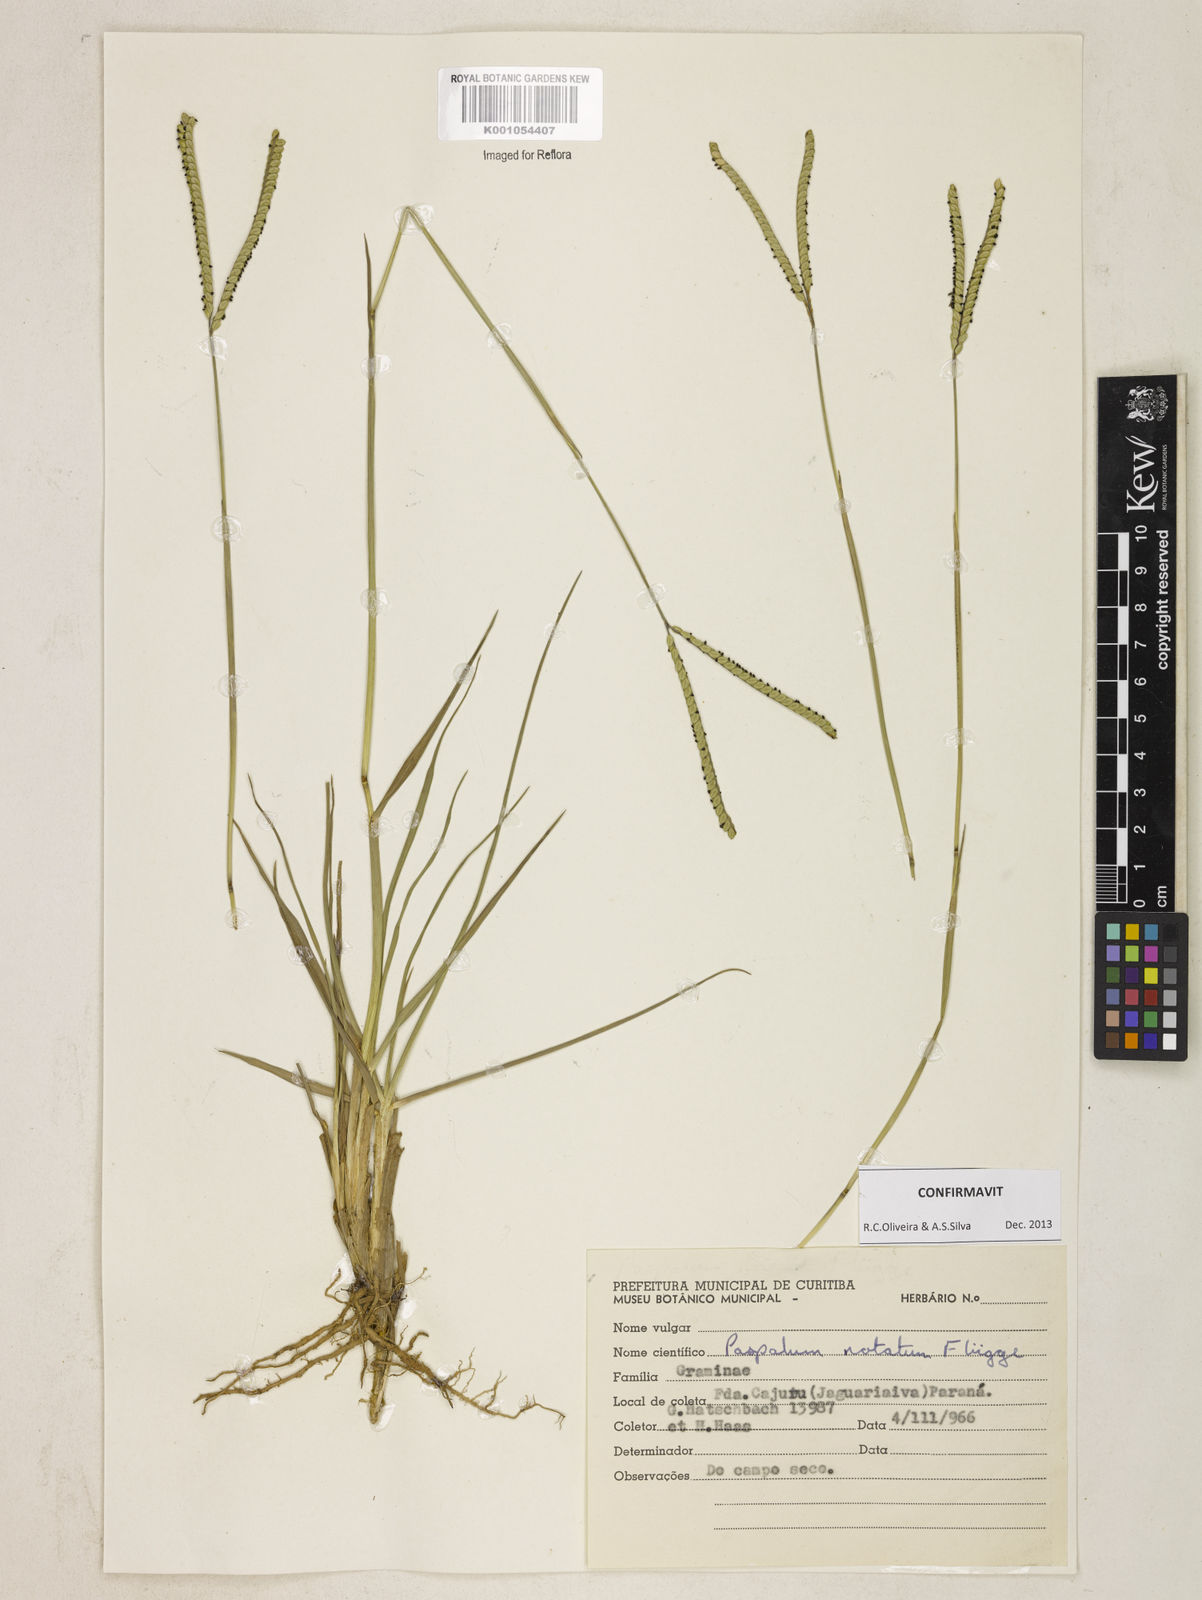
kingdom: Plantae
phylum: Tracheophyta
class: Liliopsida
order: Poales
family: Poaceae
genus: Paspalum
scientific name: Paspalum
